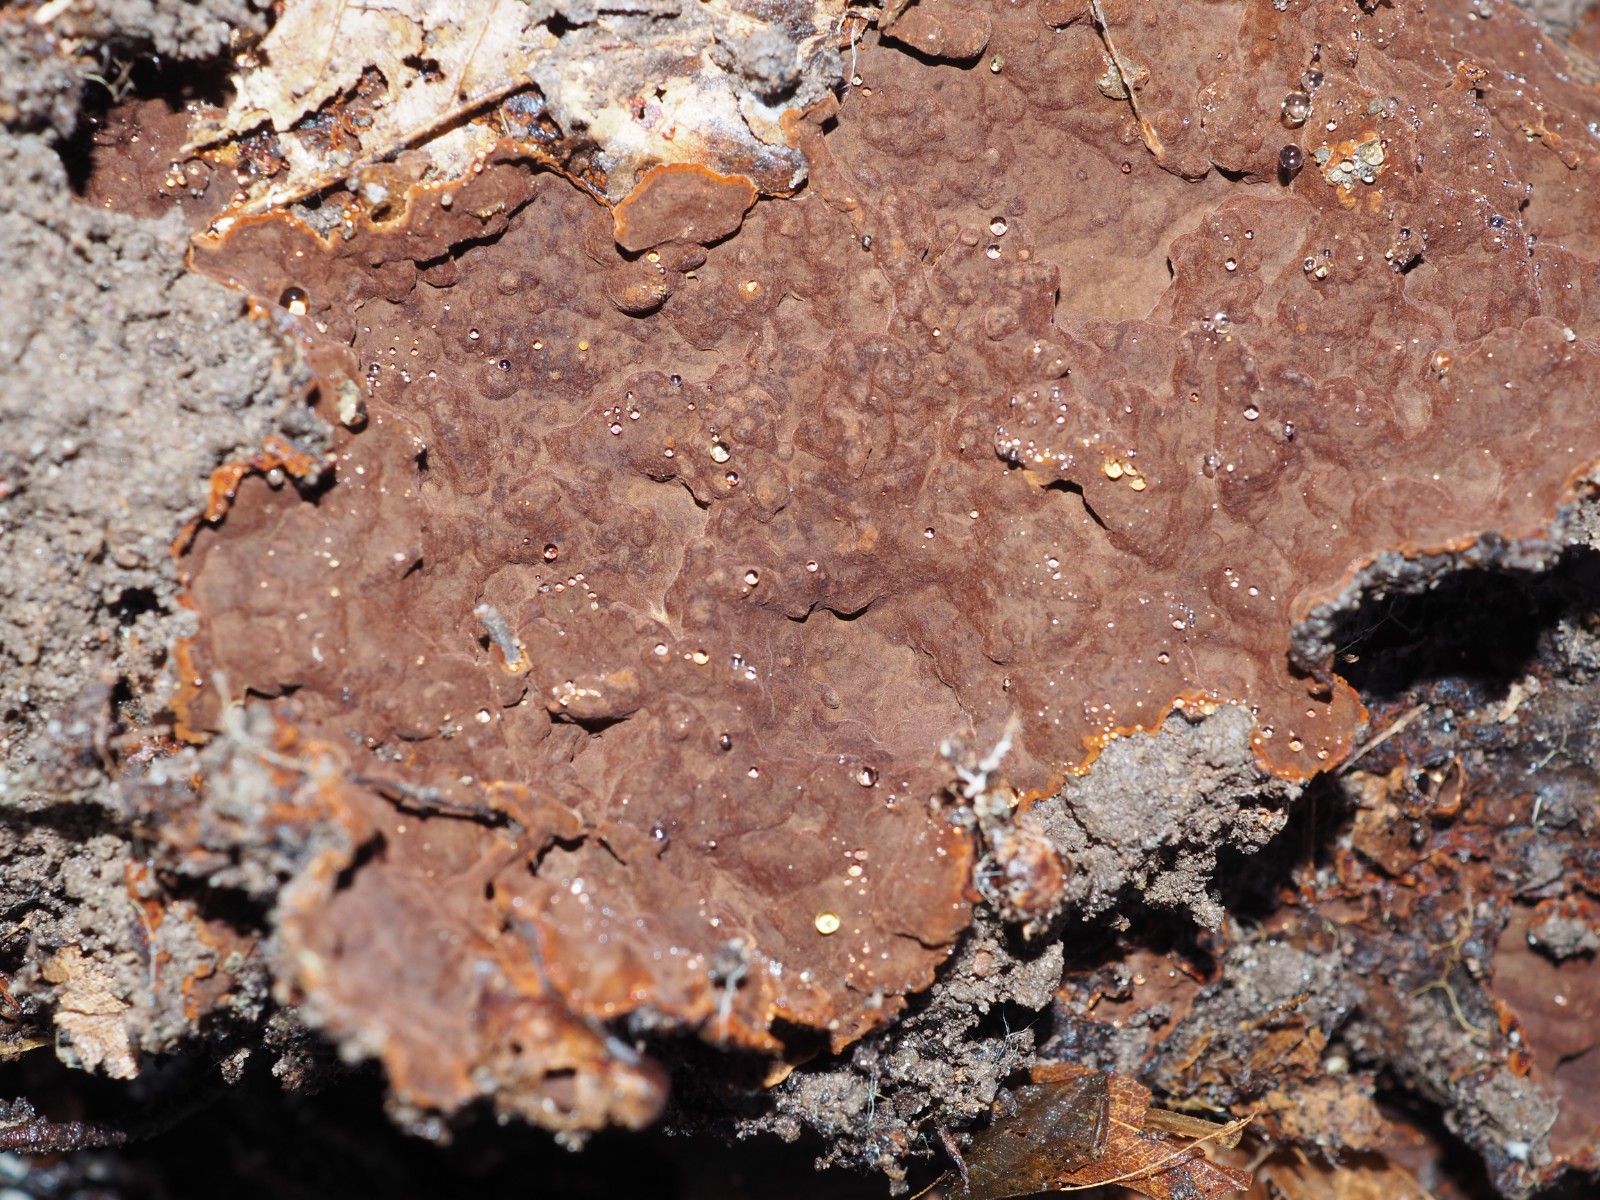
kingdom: Fungi
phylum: Basidiomycota
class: Agaricomycetes
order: Hymenochaetales
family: Hymenochaetaceae
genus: Hydnoporia
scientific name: Hydnoporia tabacina
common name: tobaksbrun ruslædersvamp
